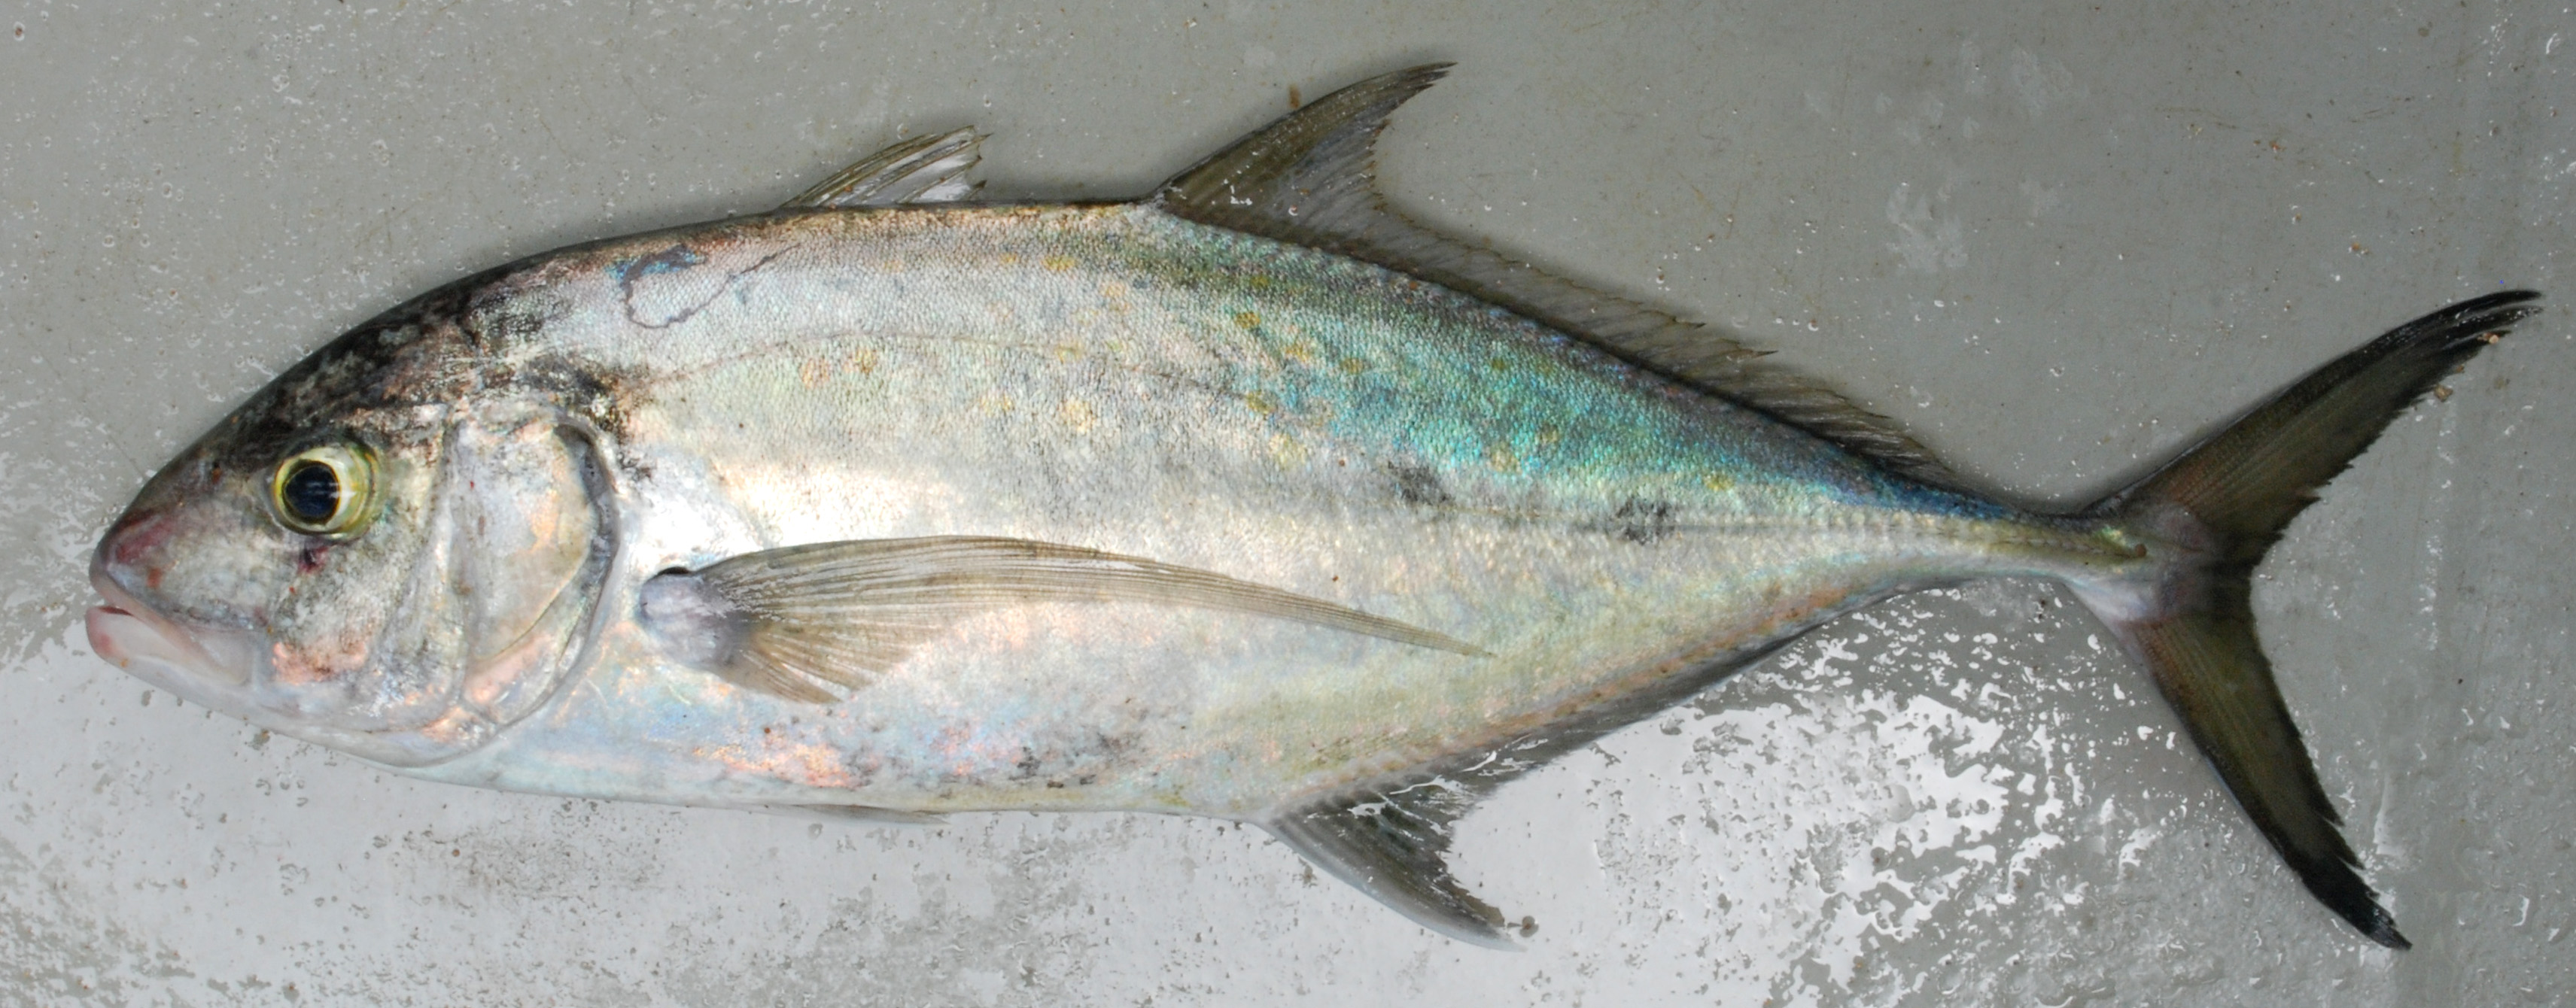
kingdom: Animalia
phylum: Chordata
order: Perciformes
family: Carangidae
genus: Carangoides
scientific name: Carangoides fulvoguttatus
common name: Yellowspotted trevally
